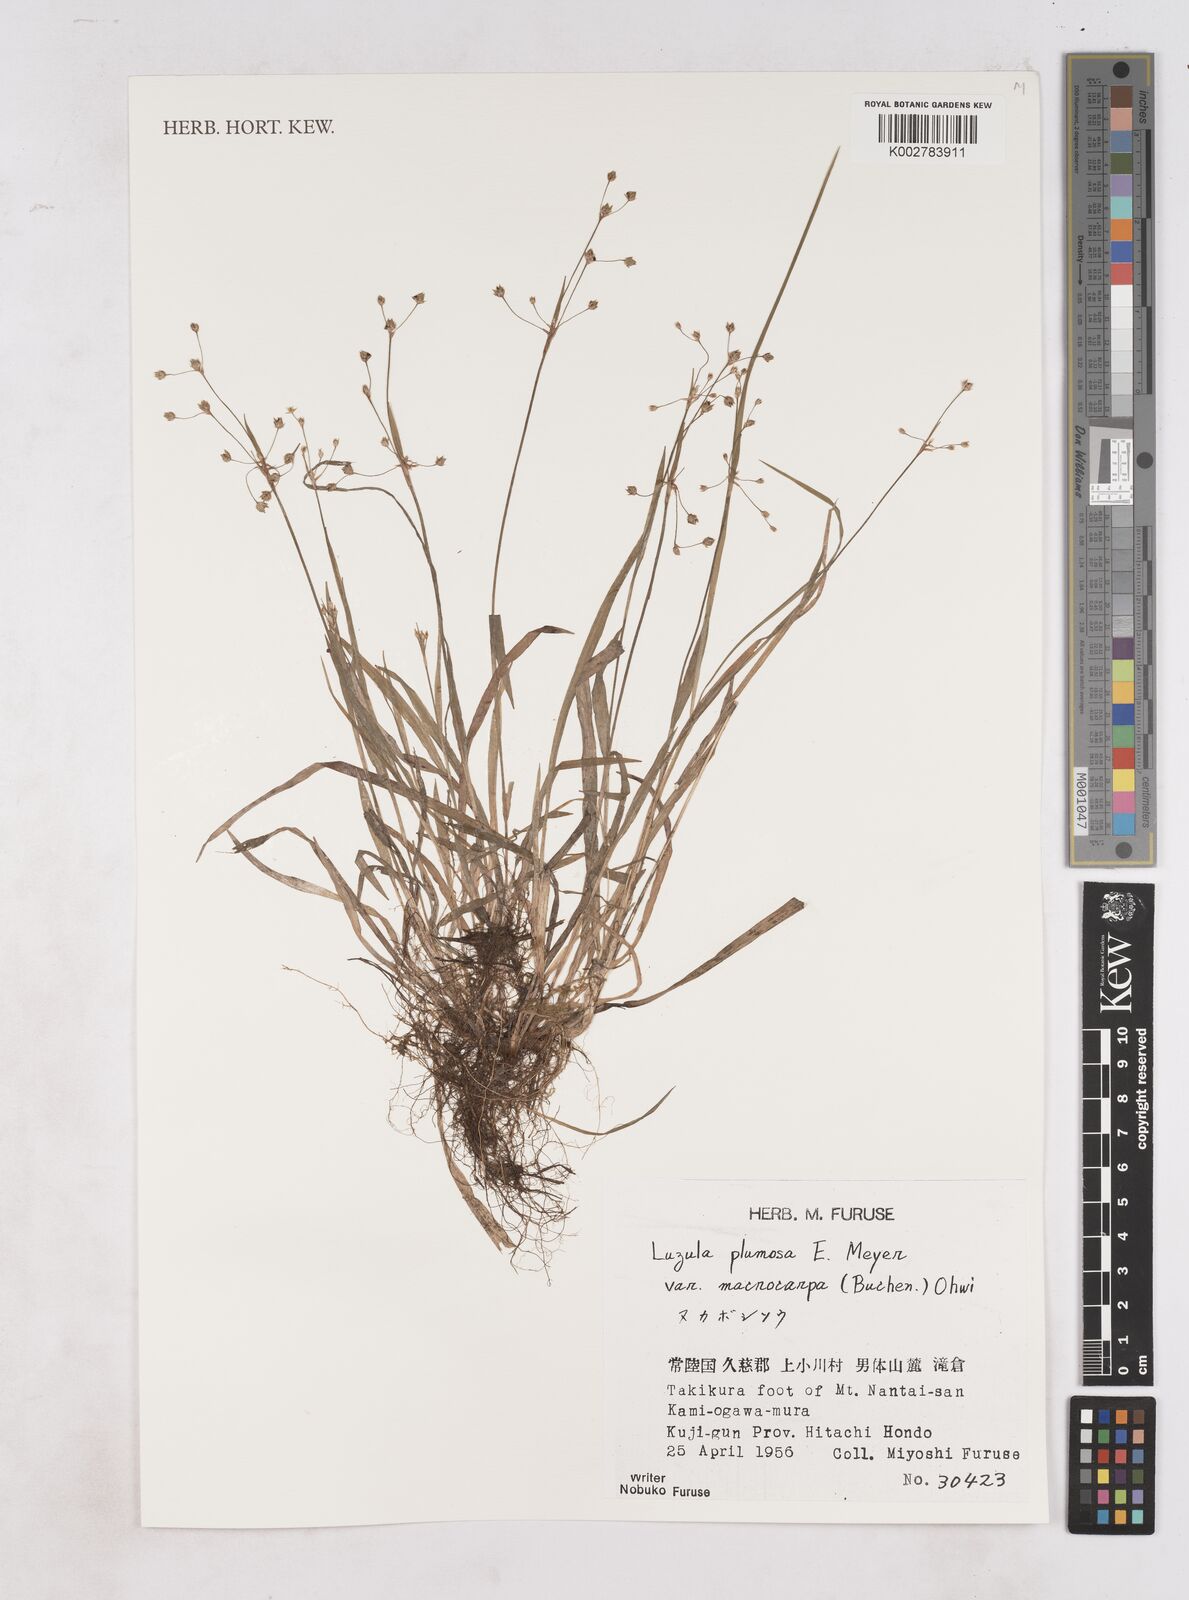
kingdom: Plantae
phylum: Tracheophyta
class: Liliopsida
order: Poales
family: Juncaceae
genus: Luzula
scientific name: Luzula plumosa
